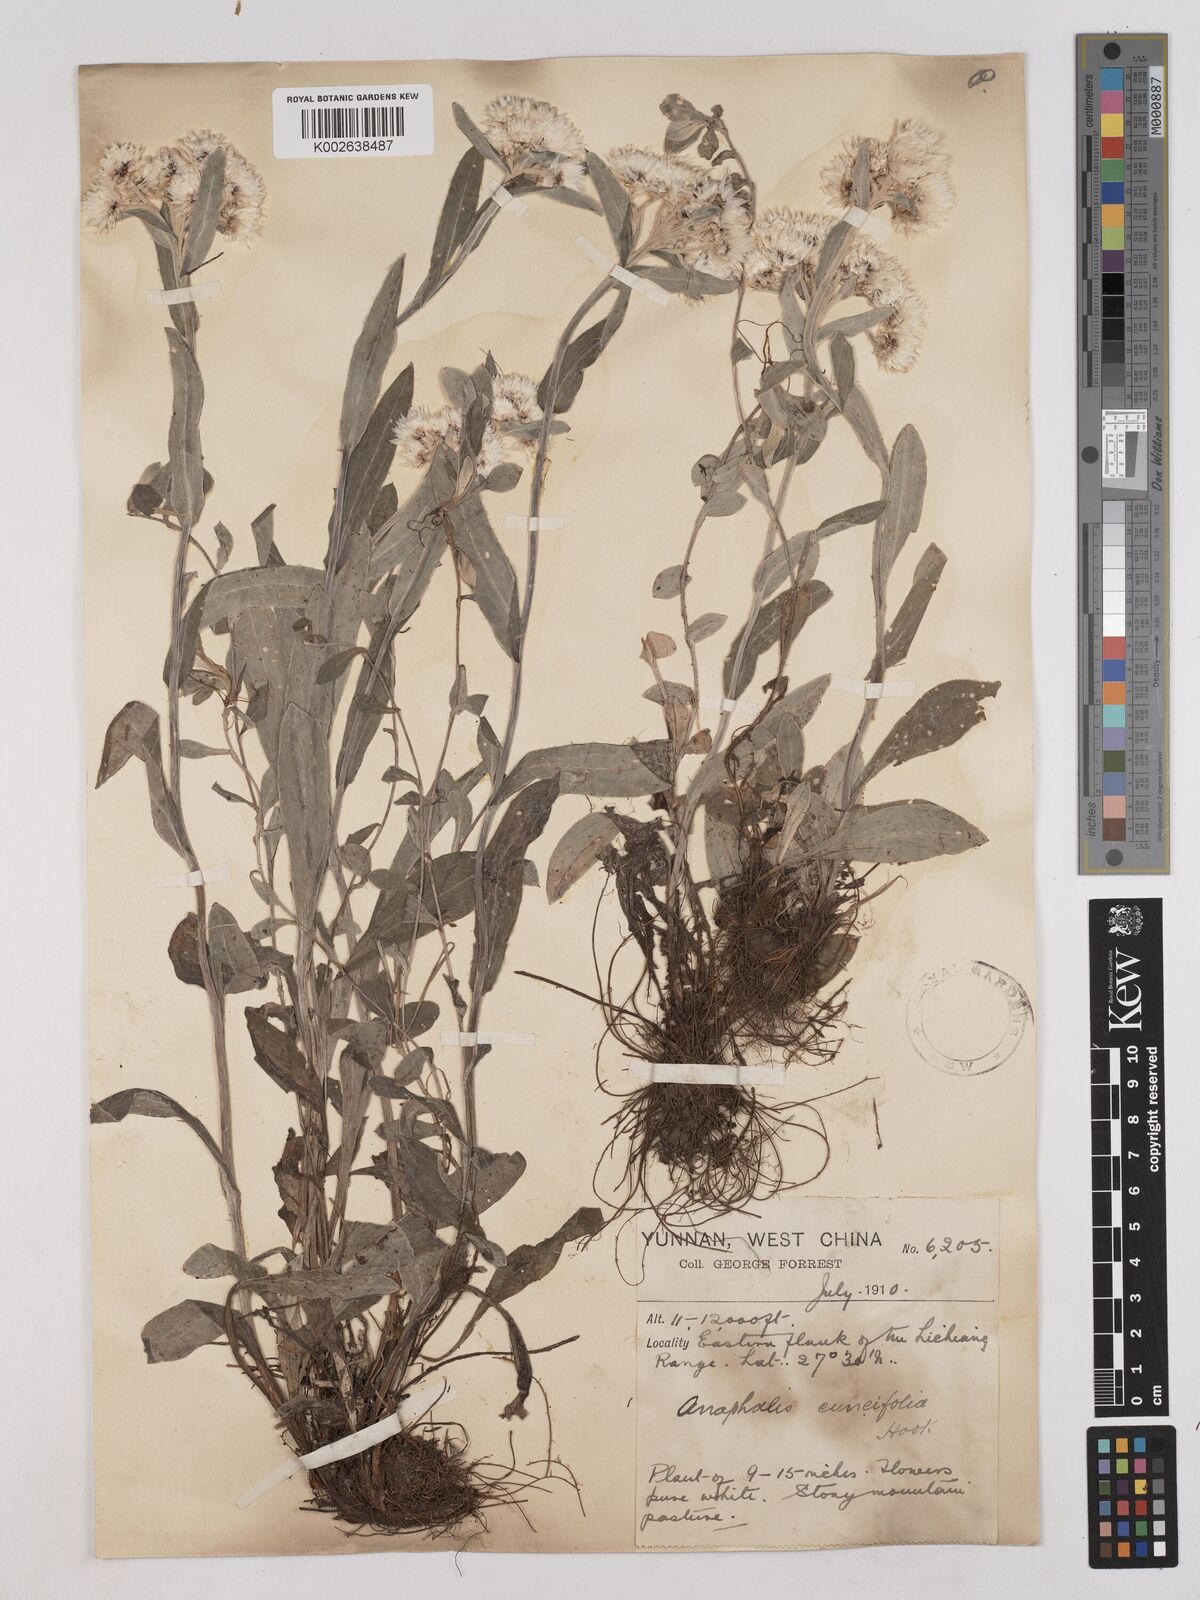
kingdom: Plantae
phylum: Tracheophyta
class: Magnoliopsida
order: Asterales
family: Asteraceae
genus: Anaphalis
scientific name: Anaphalis nepalensis
